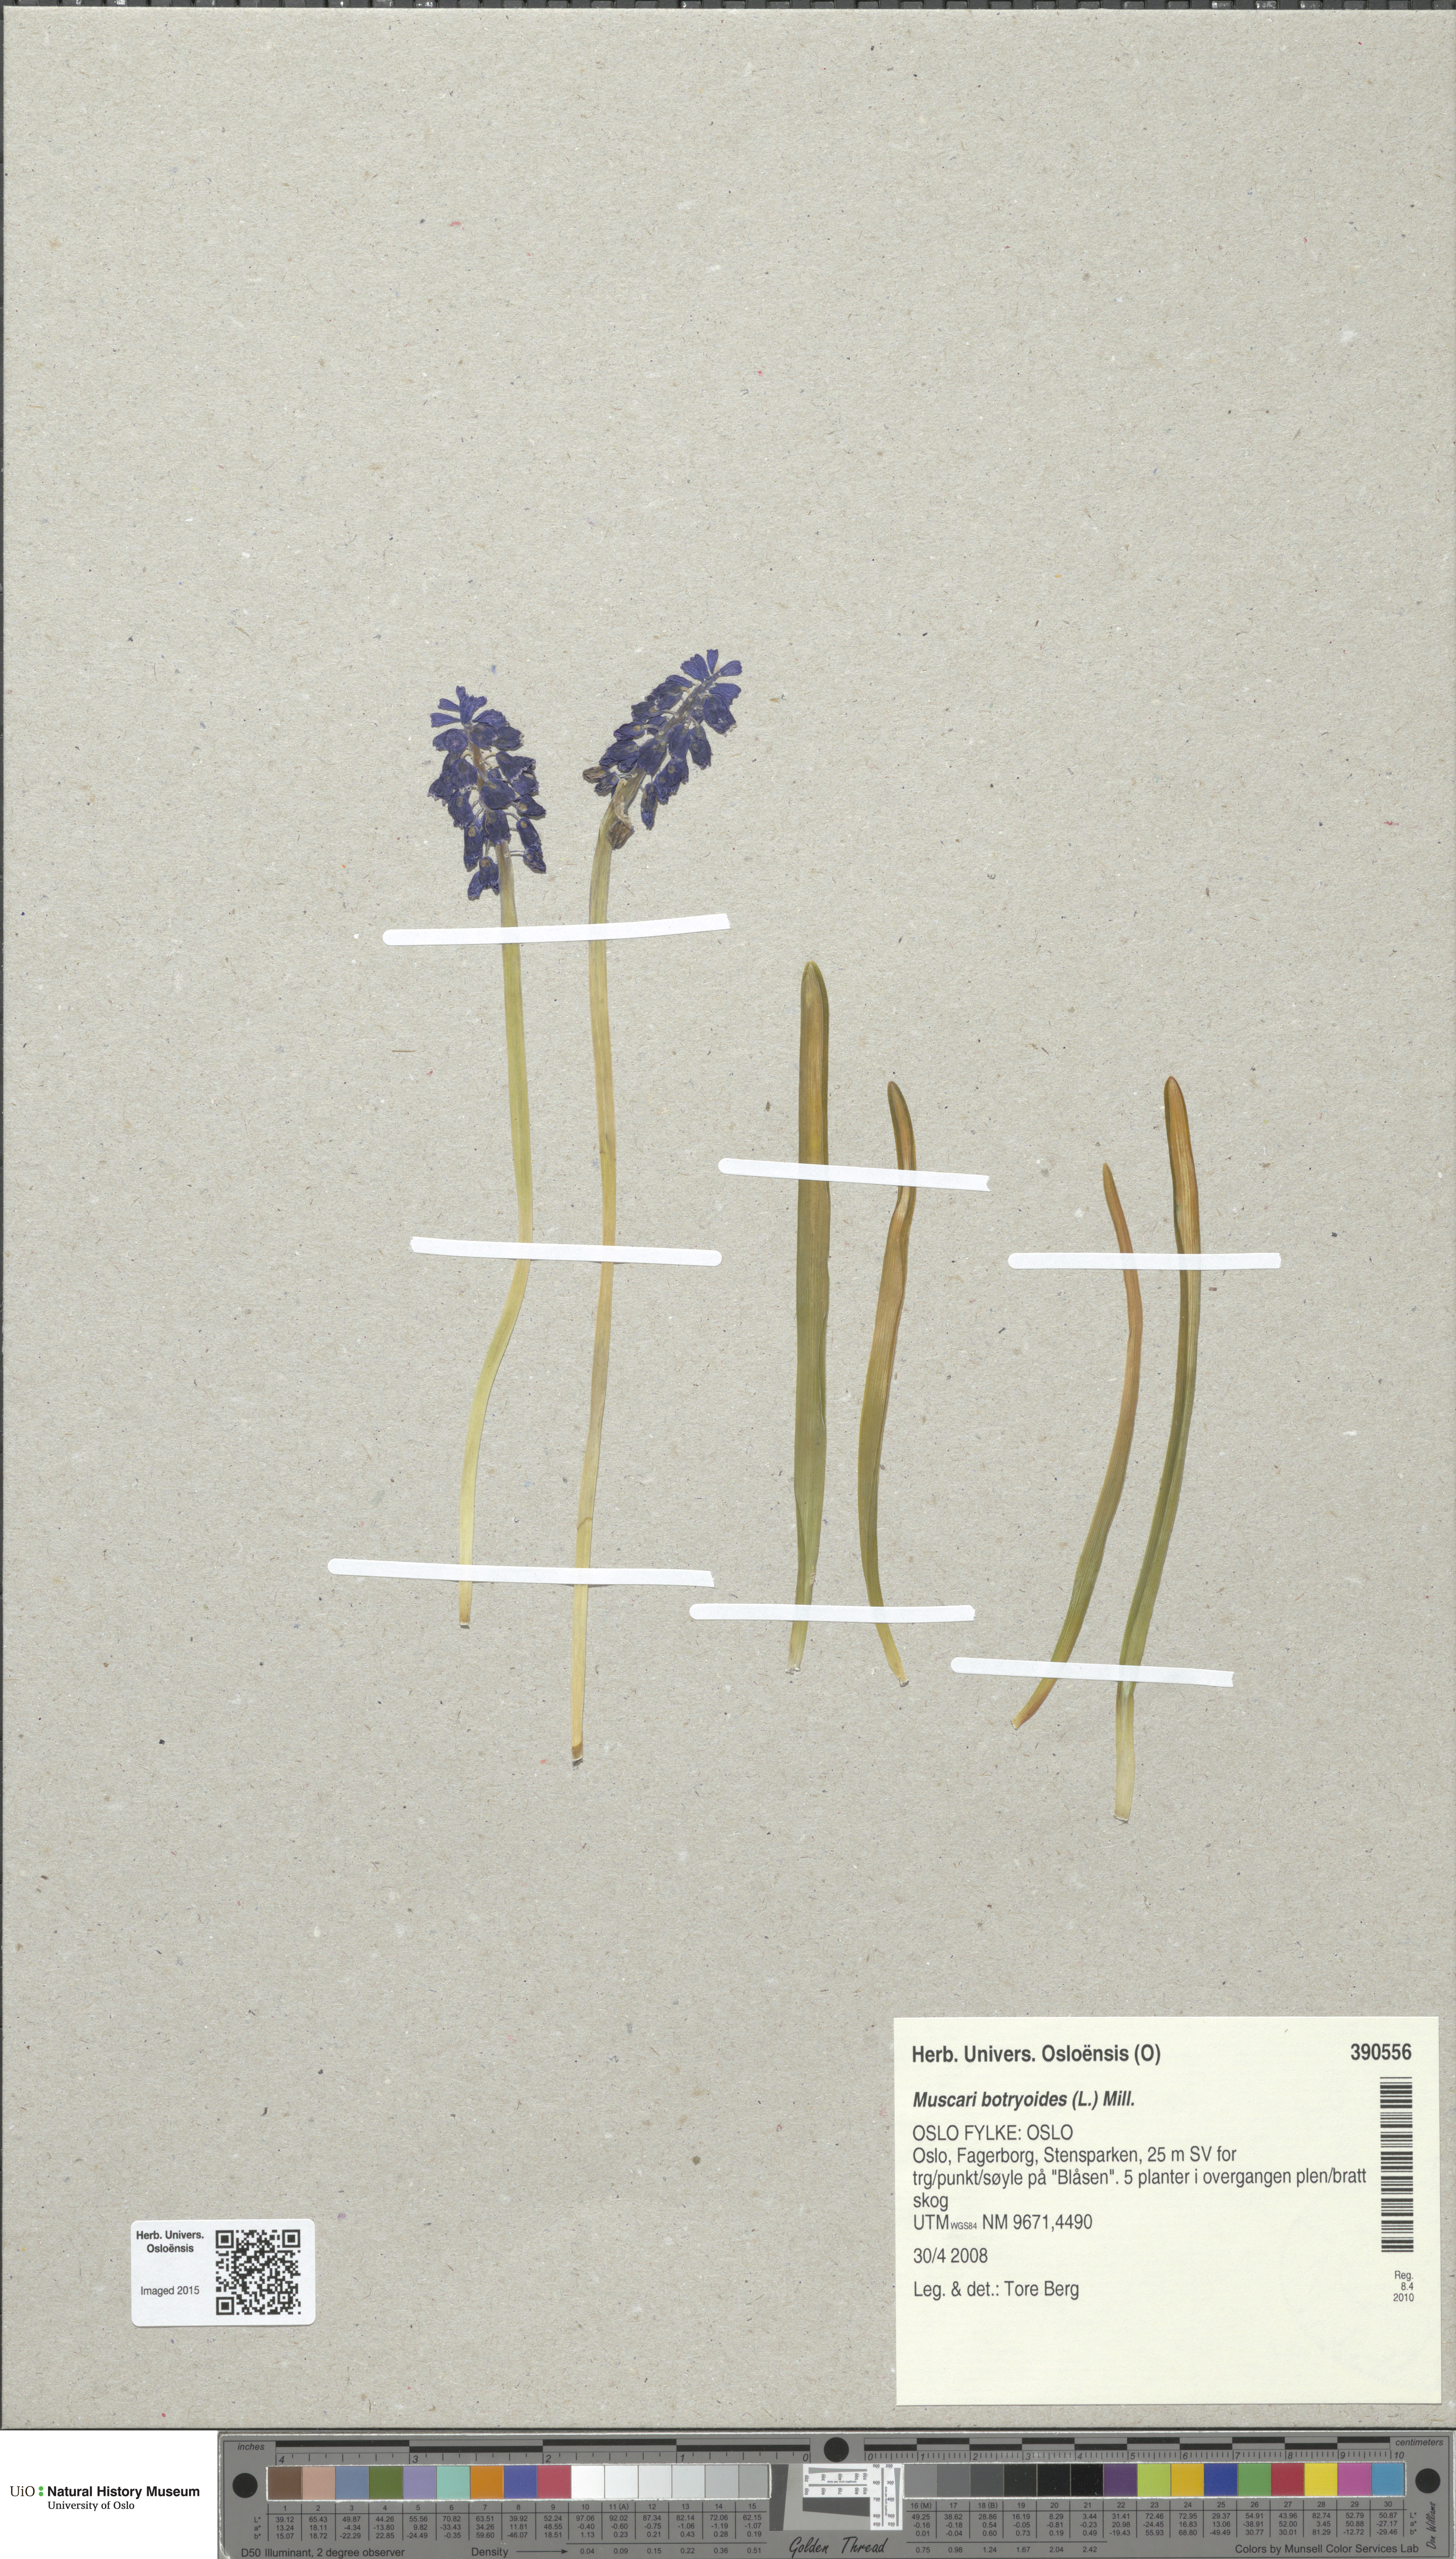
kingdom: Plantae
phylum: Tracheophyta
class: Liliopsida
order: Asparagales
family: Asparagaceae
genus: Muscari
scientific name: Muscari armeniacum
